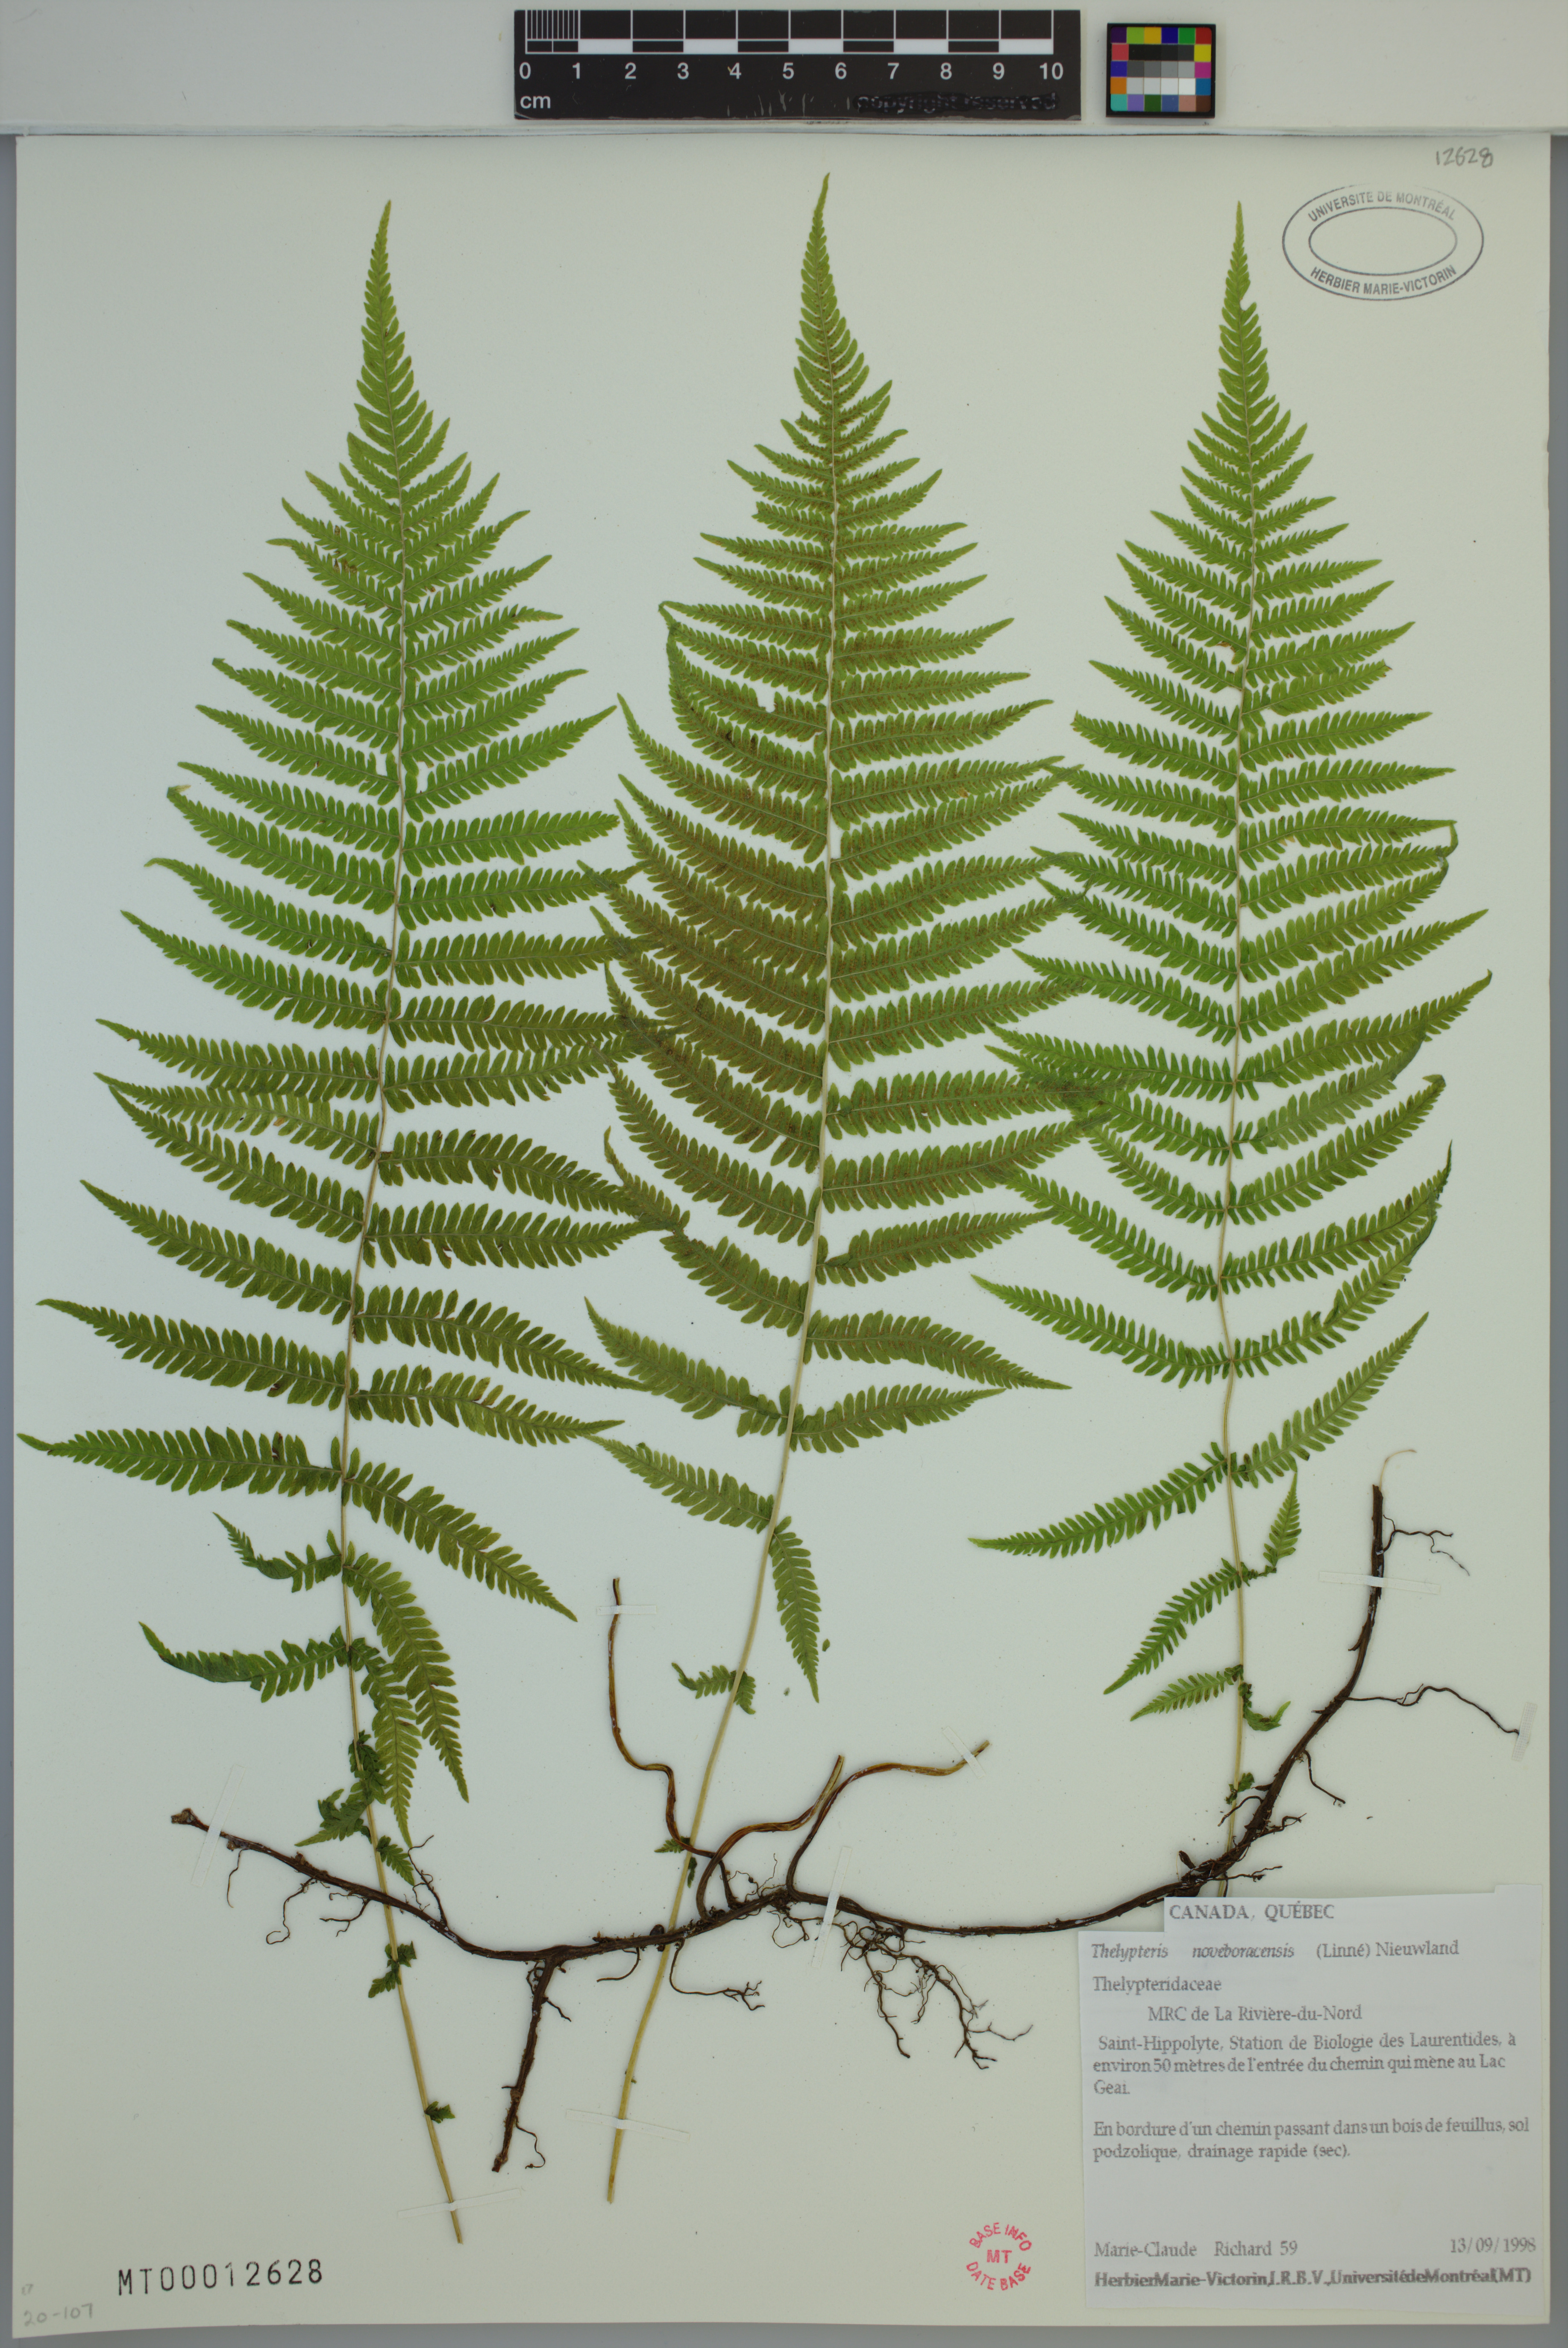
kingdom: Plantae
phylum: Tracheophyta
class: Polypodiopsida
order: Polypodiales
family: Thelypteridaceae
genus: Amauropelta
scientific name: Amauropelta noveboracensis
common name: New york fern
